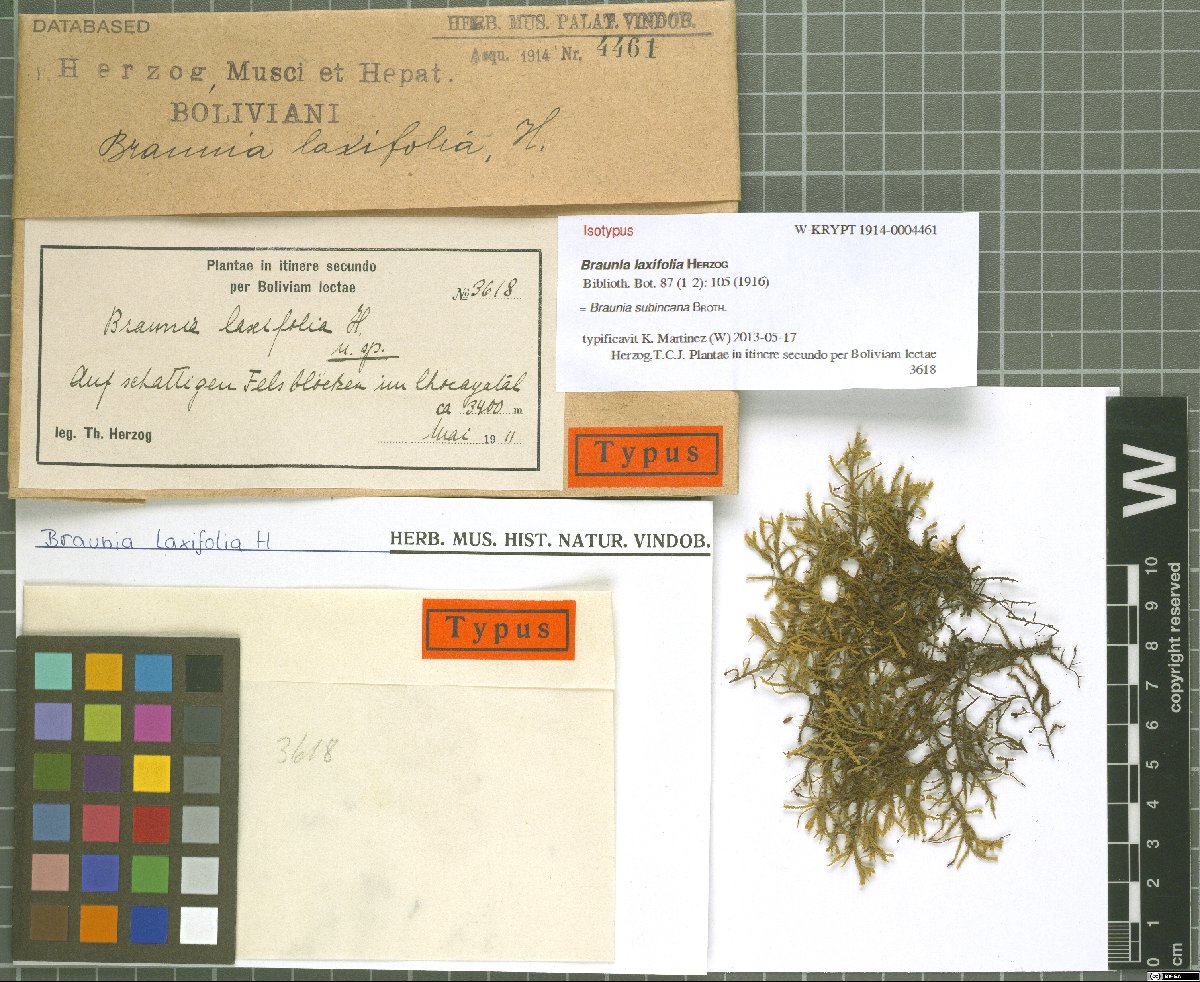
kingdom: Plantae
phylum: Bryophyta
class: Bryopsida
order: Hedwigiales
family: Hedwigiaceae
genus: Braunia
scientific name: Braunia subincana
